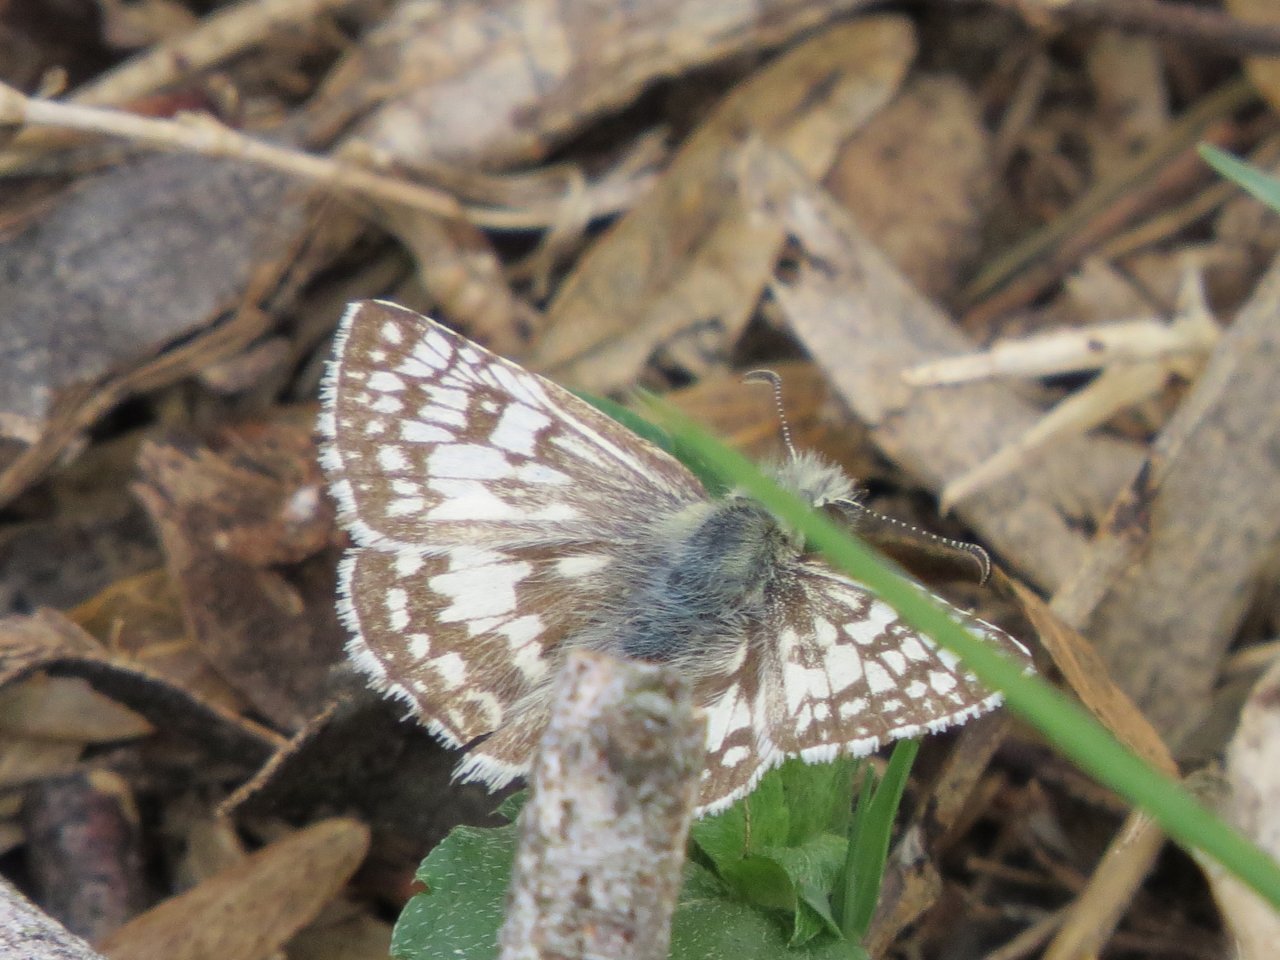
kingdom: Animalia
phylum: Arthropoda
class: Insecta
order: Lepidoptera
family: Hesperiidae
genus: Pyrgus
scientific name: Pyrgus communis
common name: Common Checkered-Skipper
